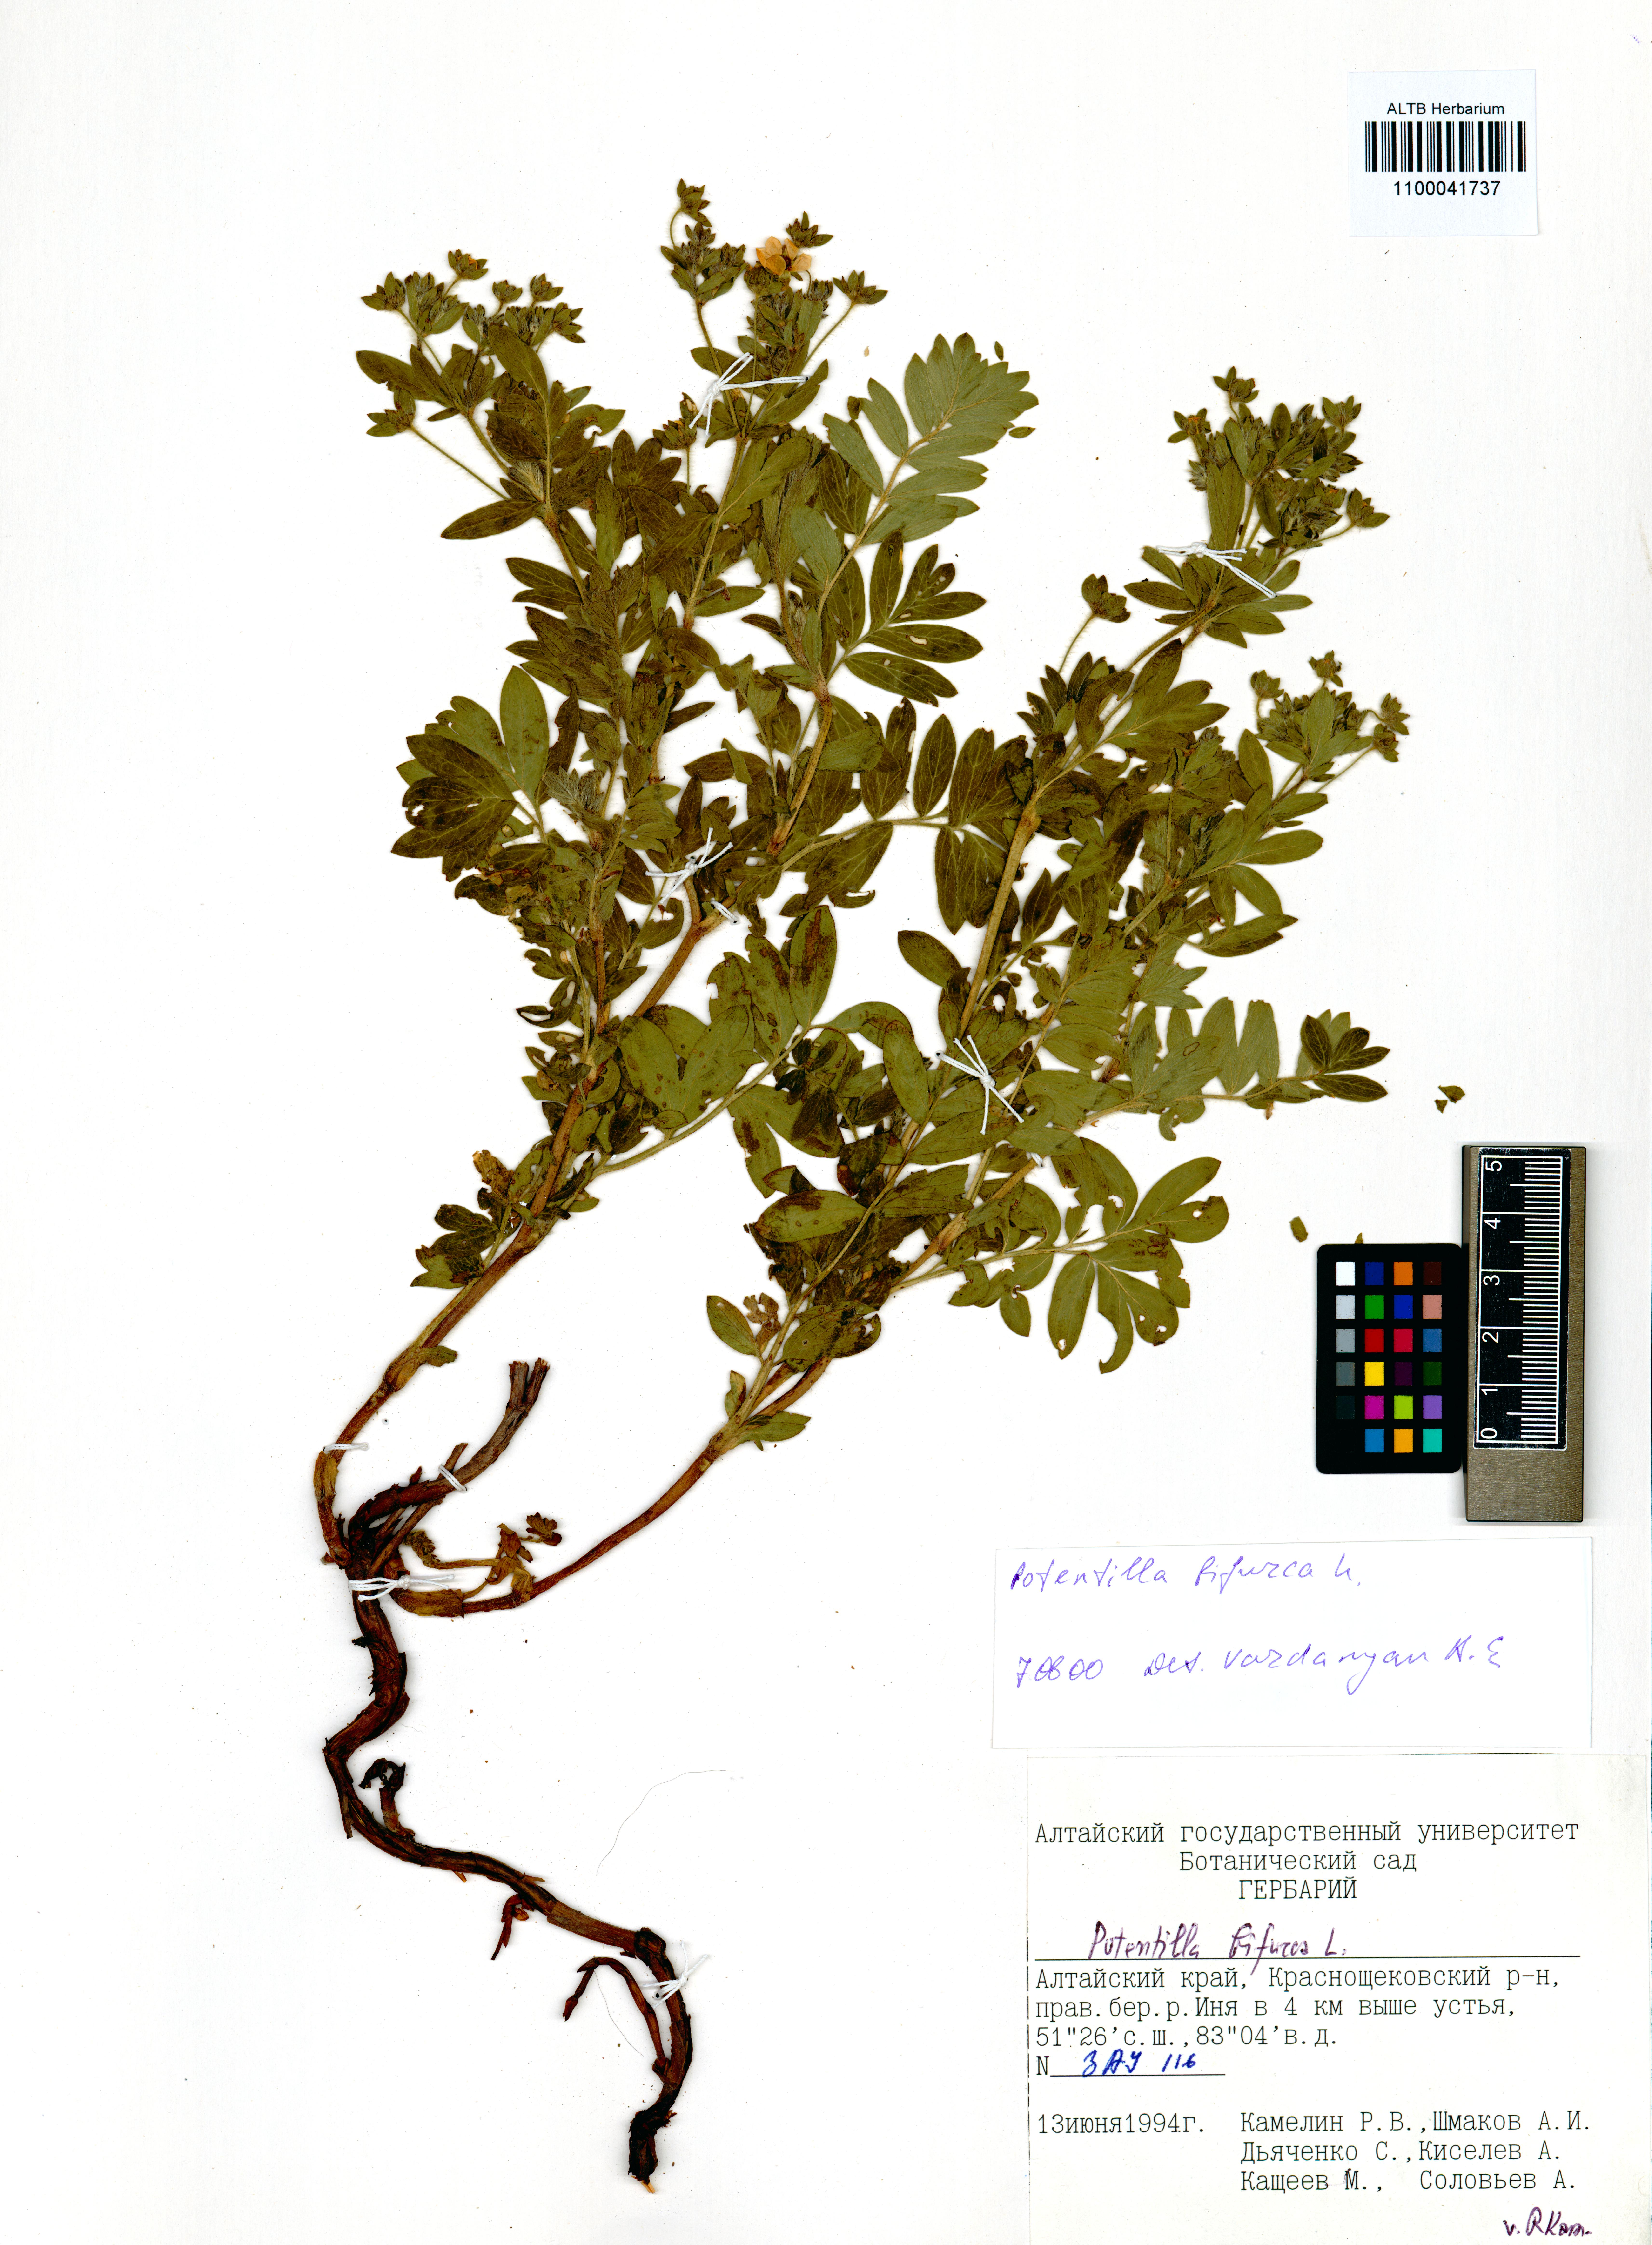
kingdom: Plantae
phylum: Tracheophyta
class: Magnoliopsida
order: Rosales
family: Rosaceae
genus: Sibbaldianthe
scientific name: Sibbaldianthe bifurca
